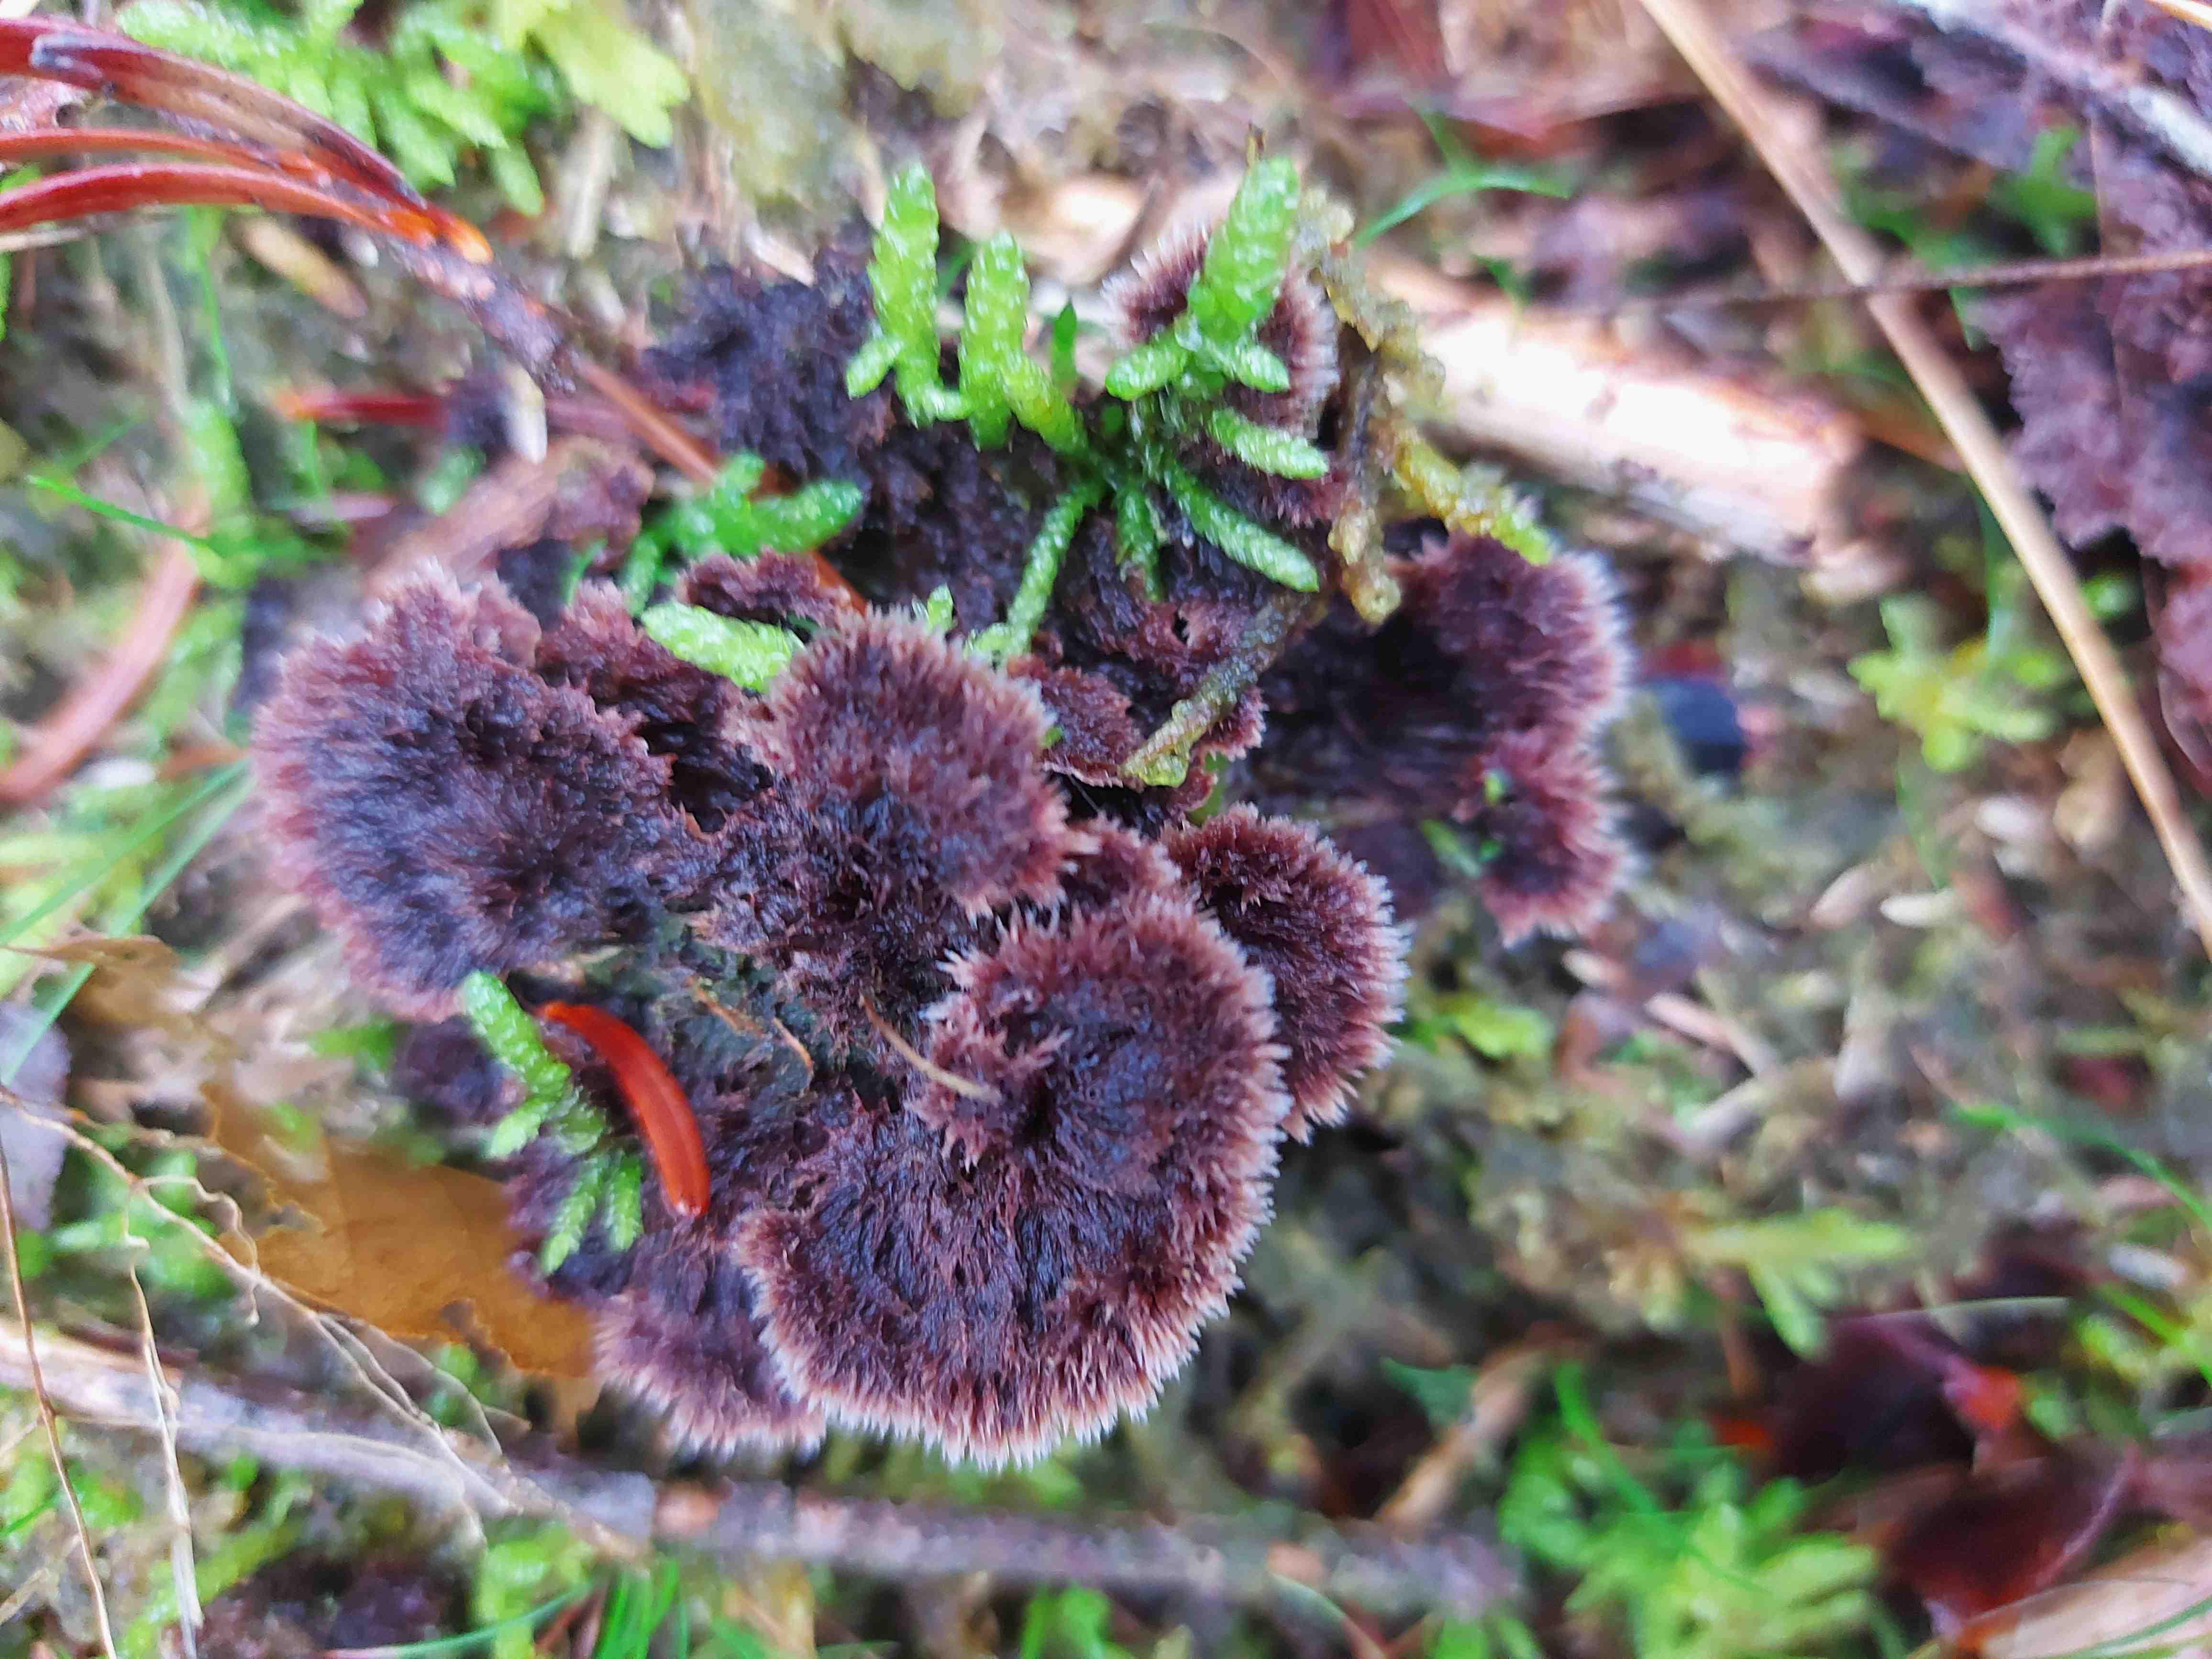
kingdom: Fungi
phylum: Basidiomycota
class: Agaricomycetes
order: Thelephorales
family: Thelephoraceae
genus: Thelephora
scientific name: Thelephora terrestris
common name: fliget frynsesvamp
